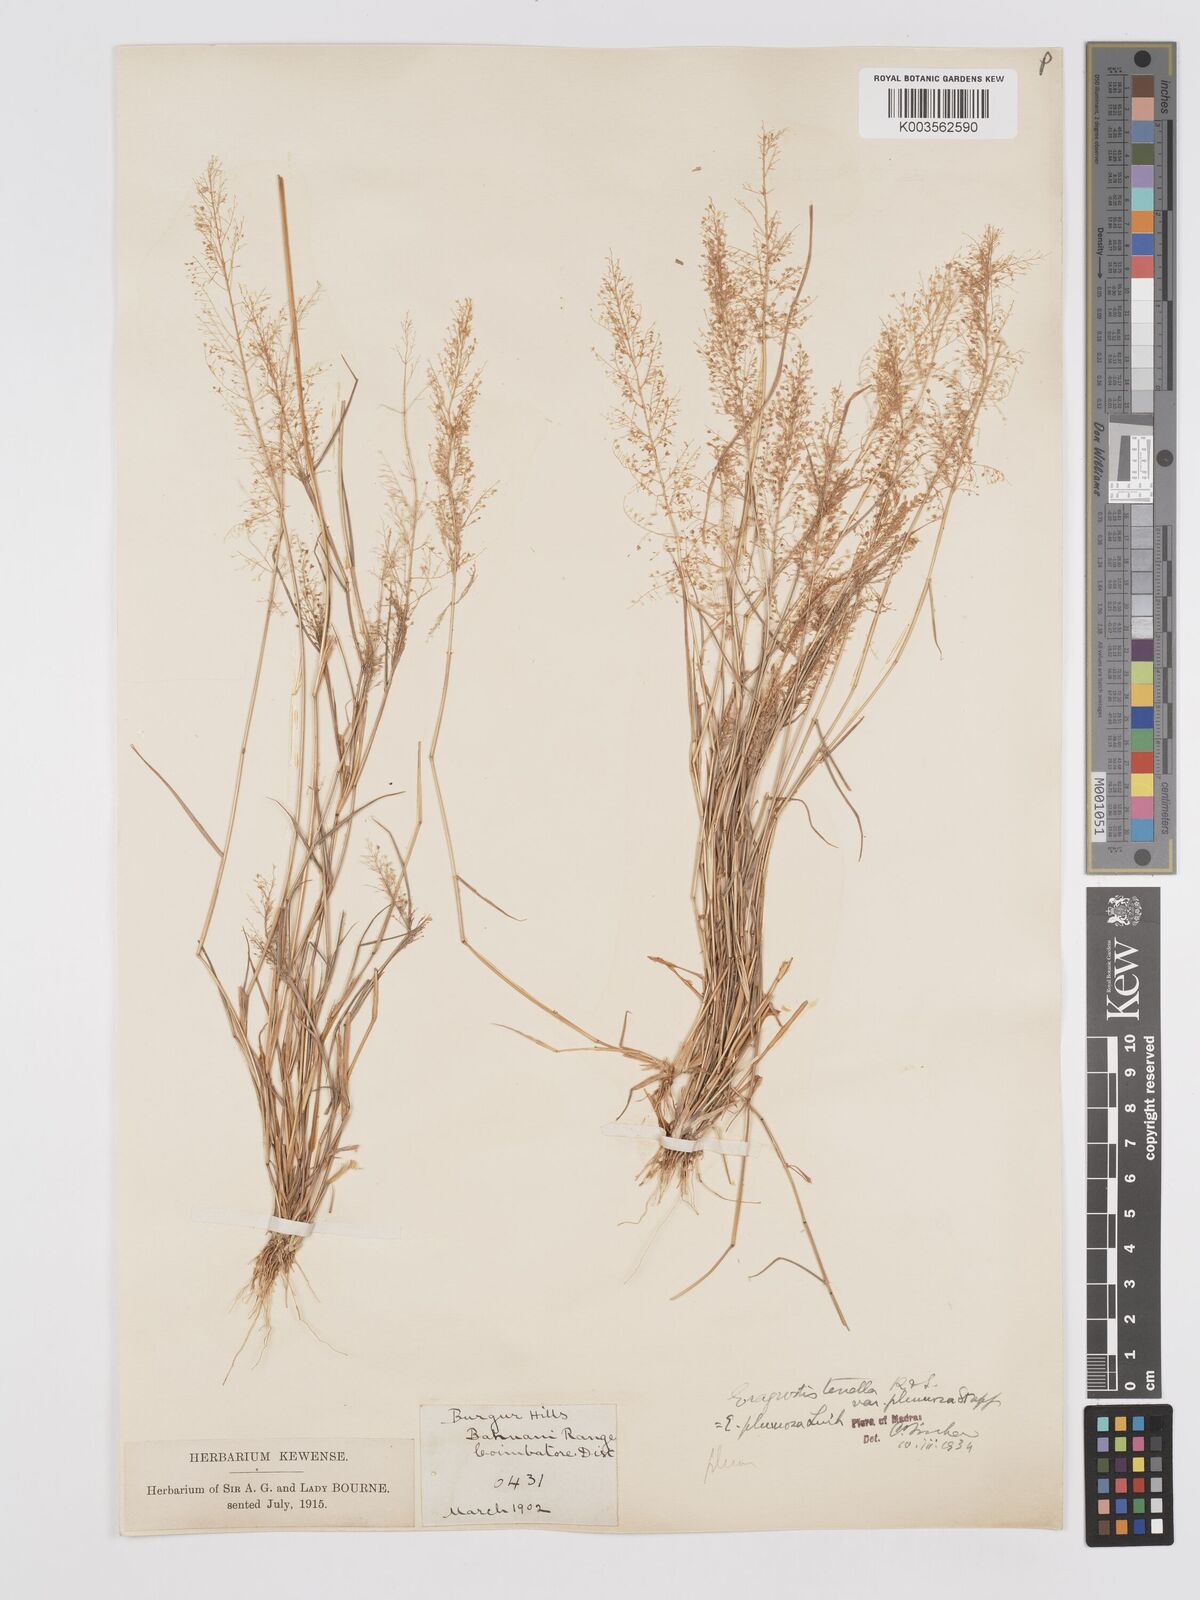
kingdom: Plantae
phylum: Tracheophyta
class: Liliopsida
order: Poales
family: Poaceae
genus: Eragrostis
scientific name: Eragrostis tenella
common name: Japanese lovegrass
